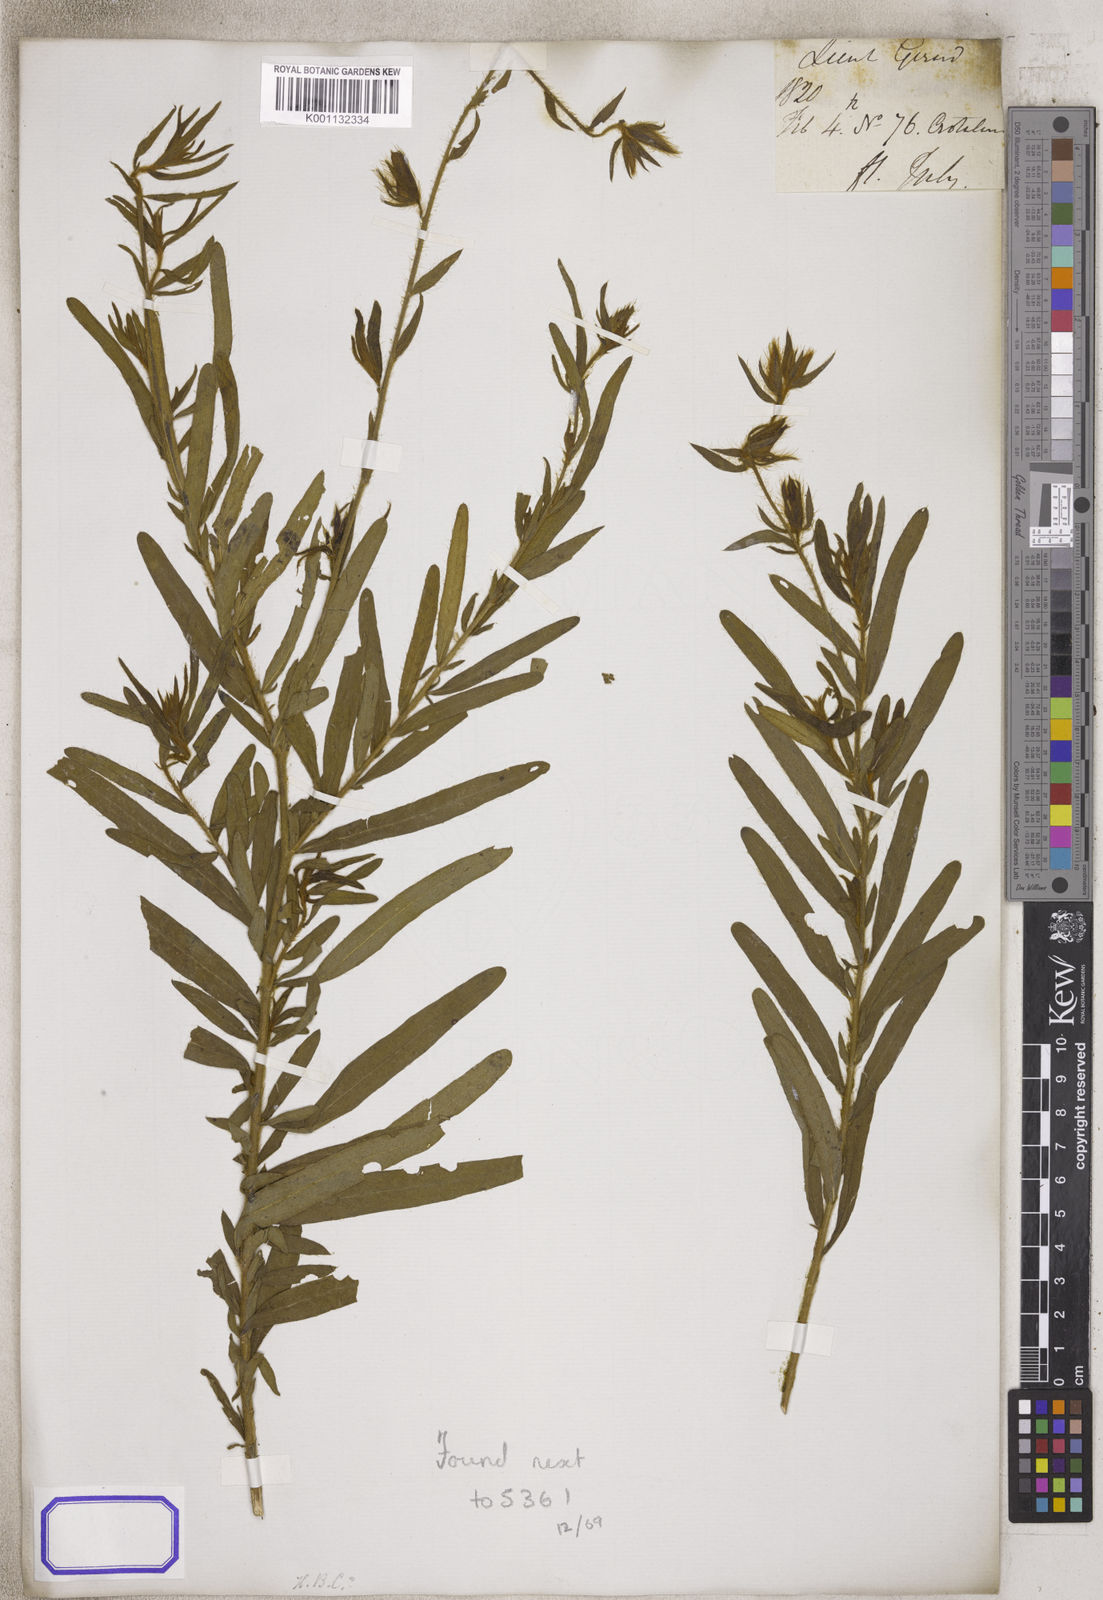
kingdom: Plantae
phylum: Tracheophyta
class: Magnoliopsida
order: Fabales
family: Fabaceae
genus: Crotalaria
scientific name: Crotalaria
